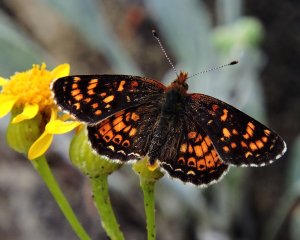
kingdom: Animalia
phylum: Arthropoda
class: Insecta
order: Lepidoptera
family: Nymphalidae
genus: Phyciodes
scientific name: Phyciodes tharos
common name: Field Crescent
